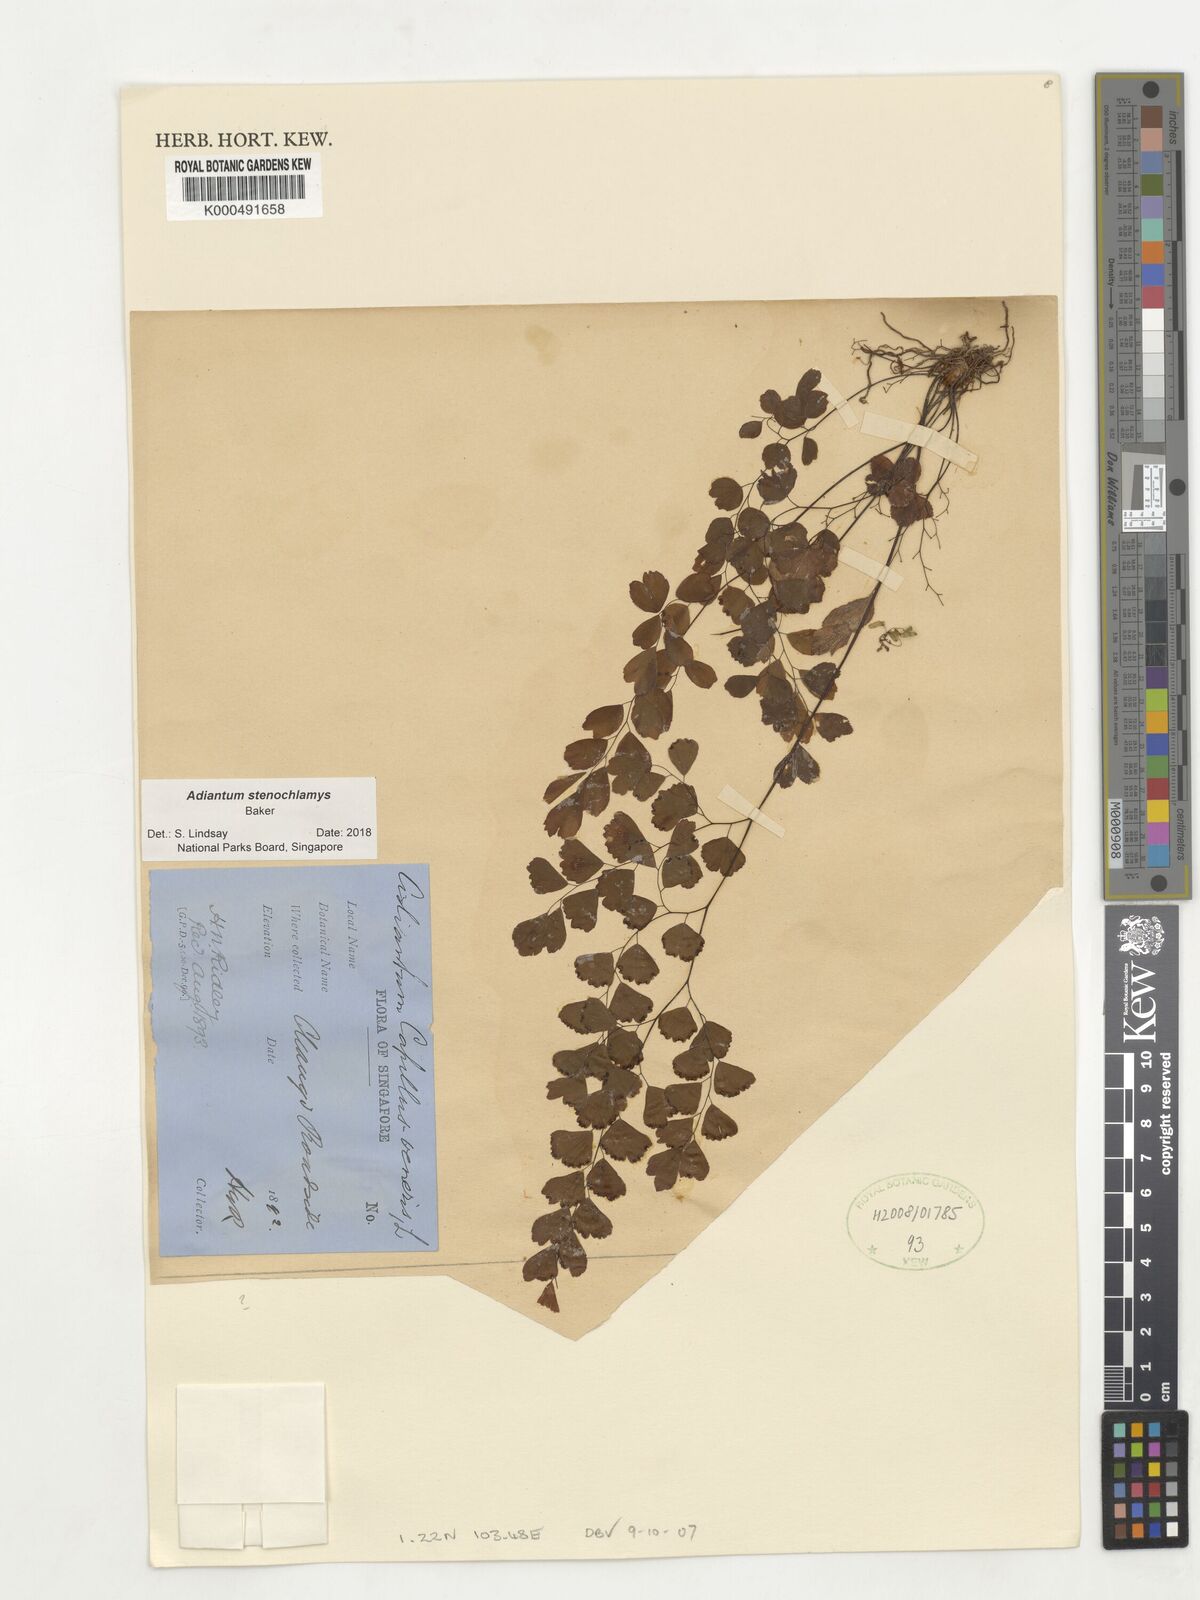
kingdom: Plantae
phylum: Tracheophyta
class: Polypodiopsida
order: Polypodiales
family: Pteridaceae
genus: Adiantum
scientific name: Adiantum stenochlamys
